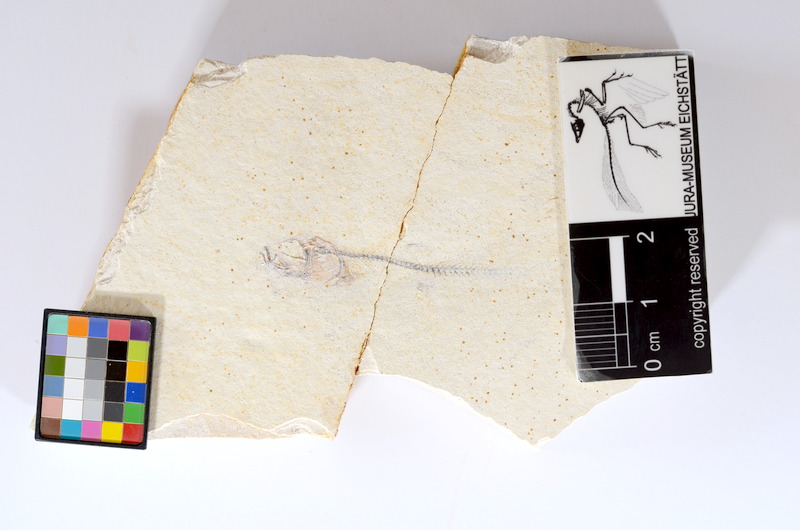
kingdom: Animalia
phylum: Chordata
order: Salmoniformes
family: Orthogonikleithridae
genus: Orthogonikleithrus
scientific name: Orthogonikleithrus hoelli
